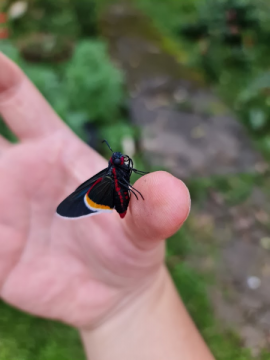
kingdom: Animalia
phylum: Arthropoda
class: Insecta
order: Lepidoptera
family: Hesperiidae
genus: Mysoria
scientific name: Mysoria barcastus
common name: Royal Firetip
